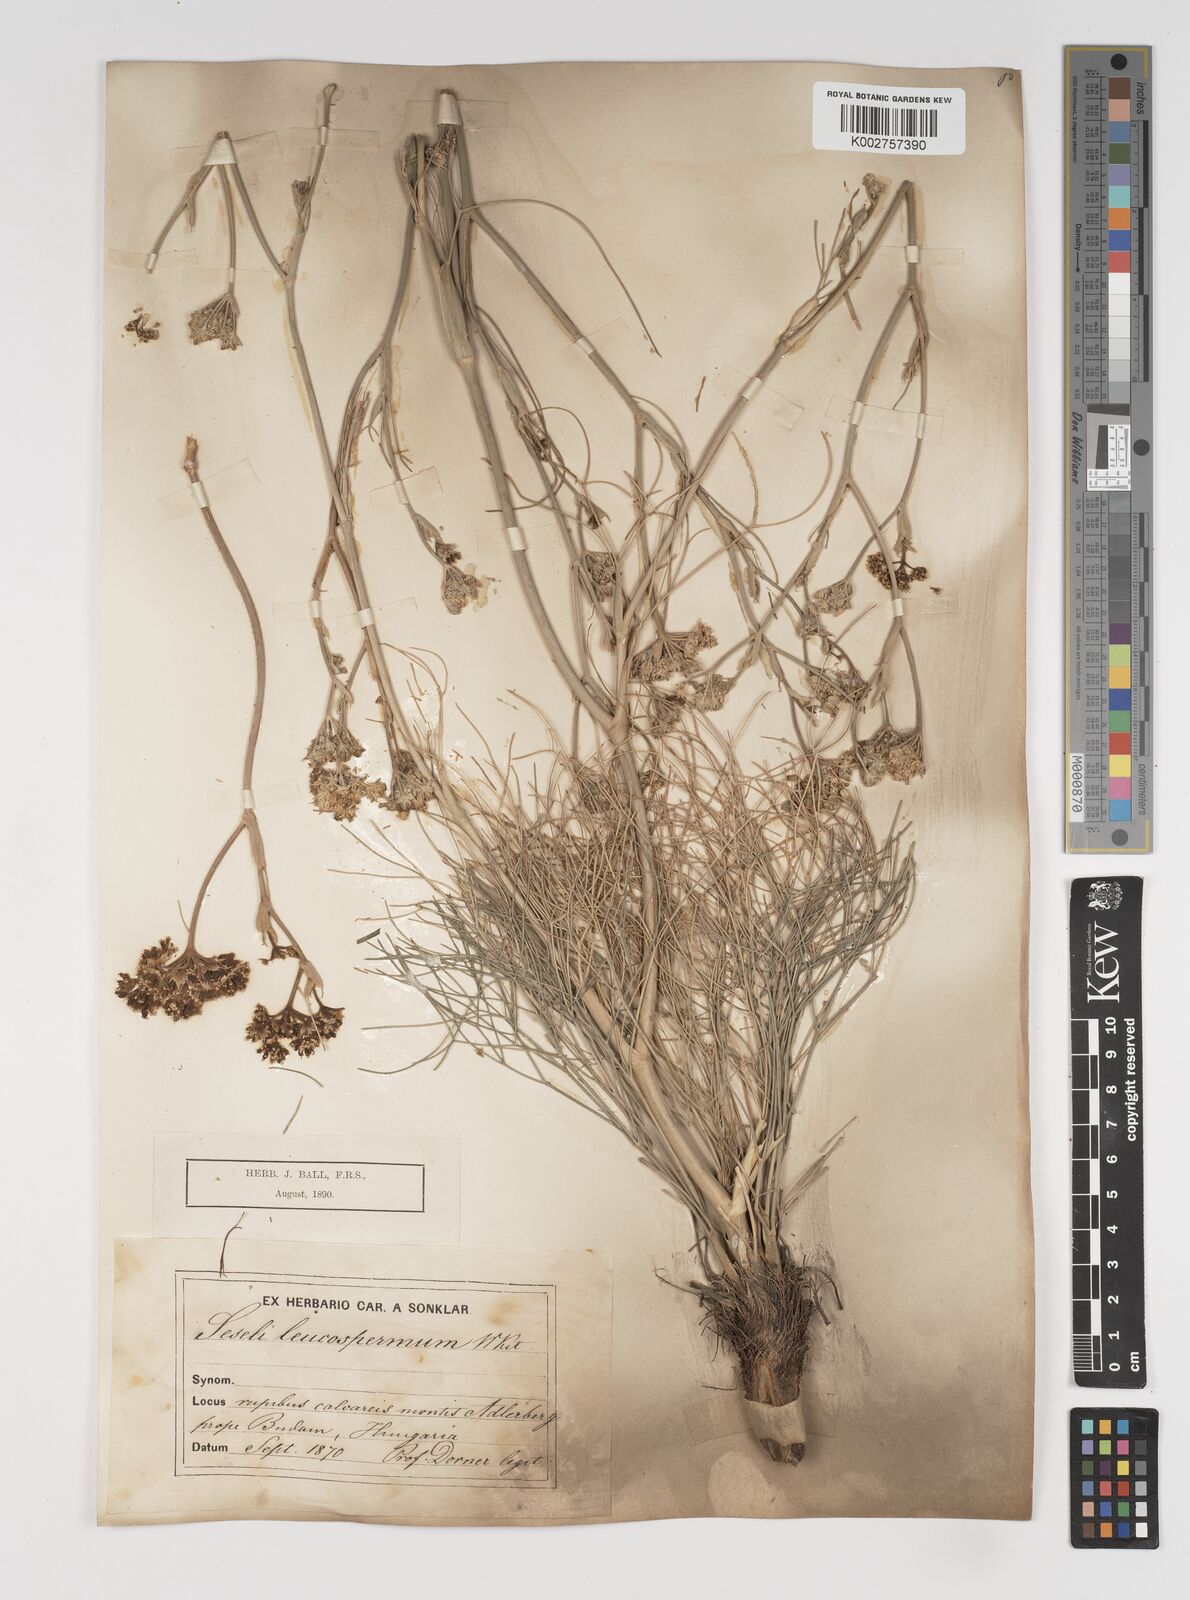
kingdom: Plantae
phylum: Tracheophyta
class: Magnoliopsida
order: Apiales
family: Apiaceae
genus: Seseli
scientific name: Seseli leucospermum
